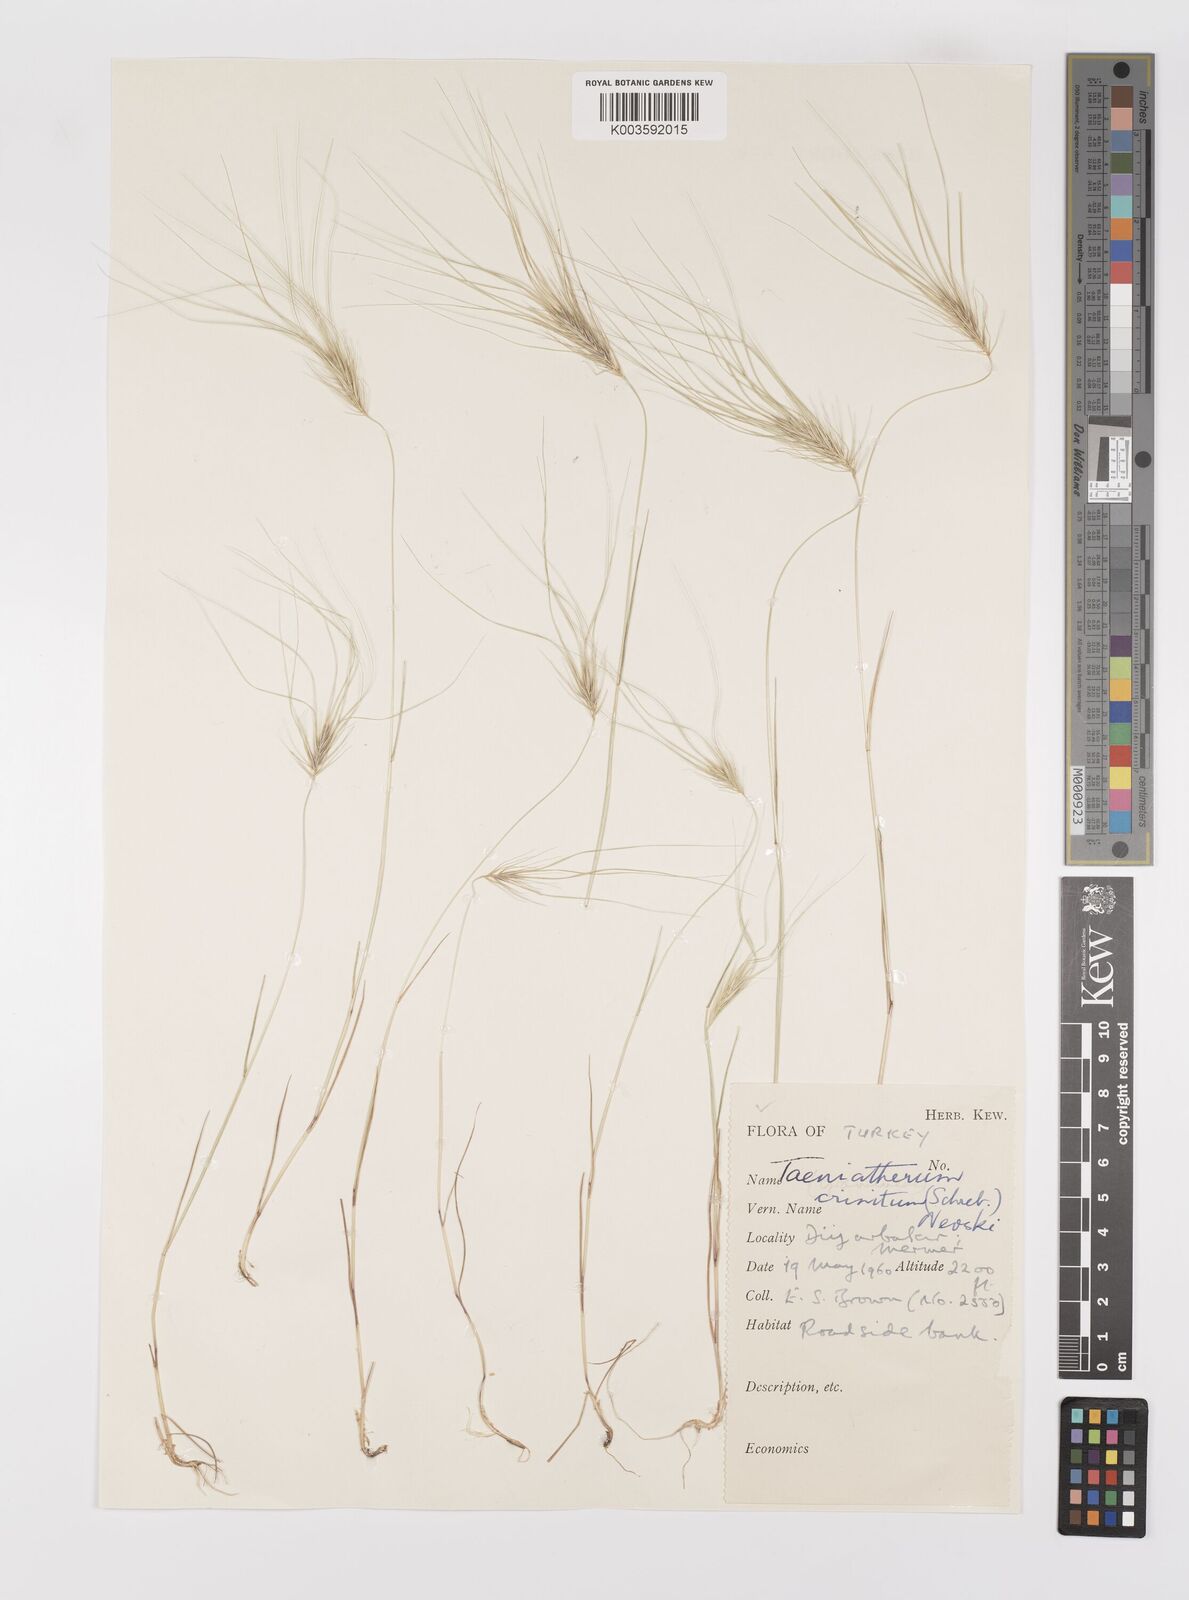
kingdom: Plantae
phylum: Tracheophyta
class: Liliopsida
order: Poales
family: Poaceae
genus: Taeniatherum
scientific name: Taeniatherum caput-medusae
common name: Medusahead
